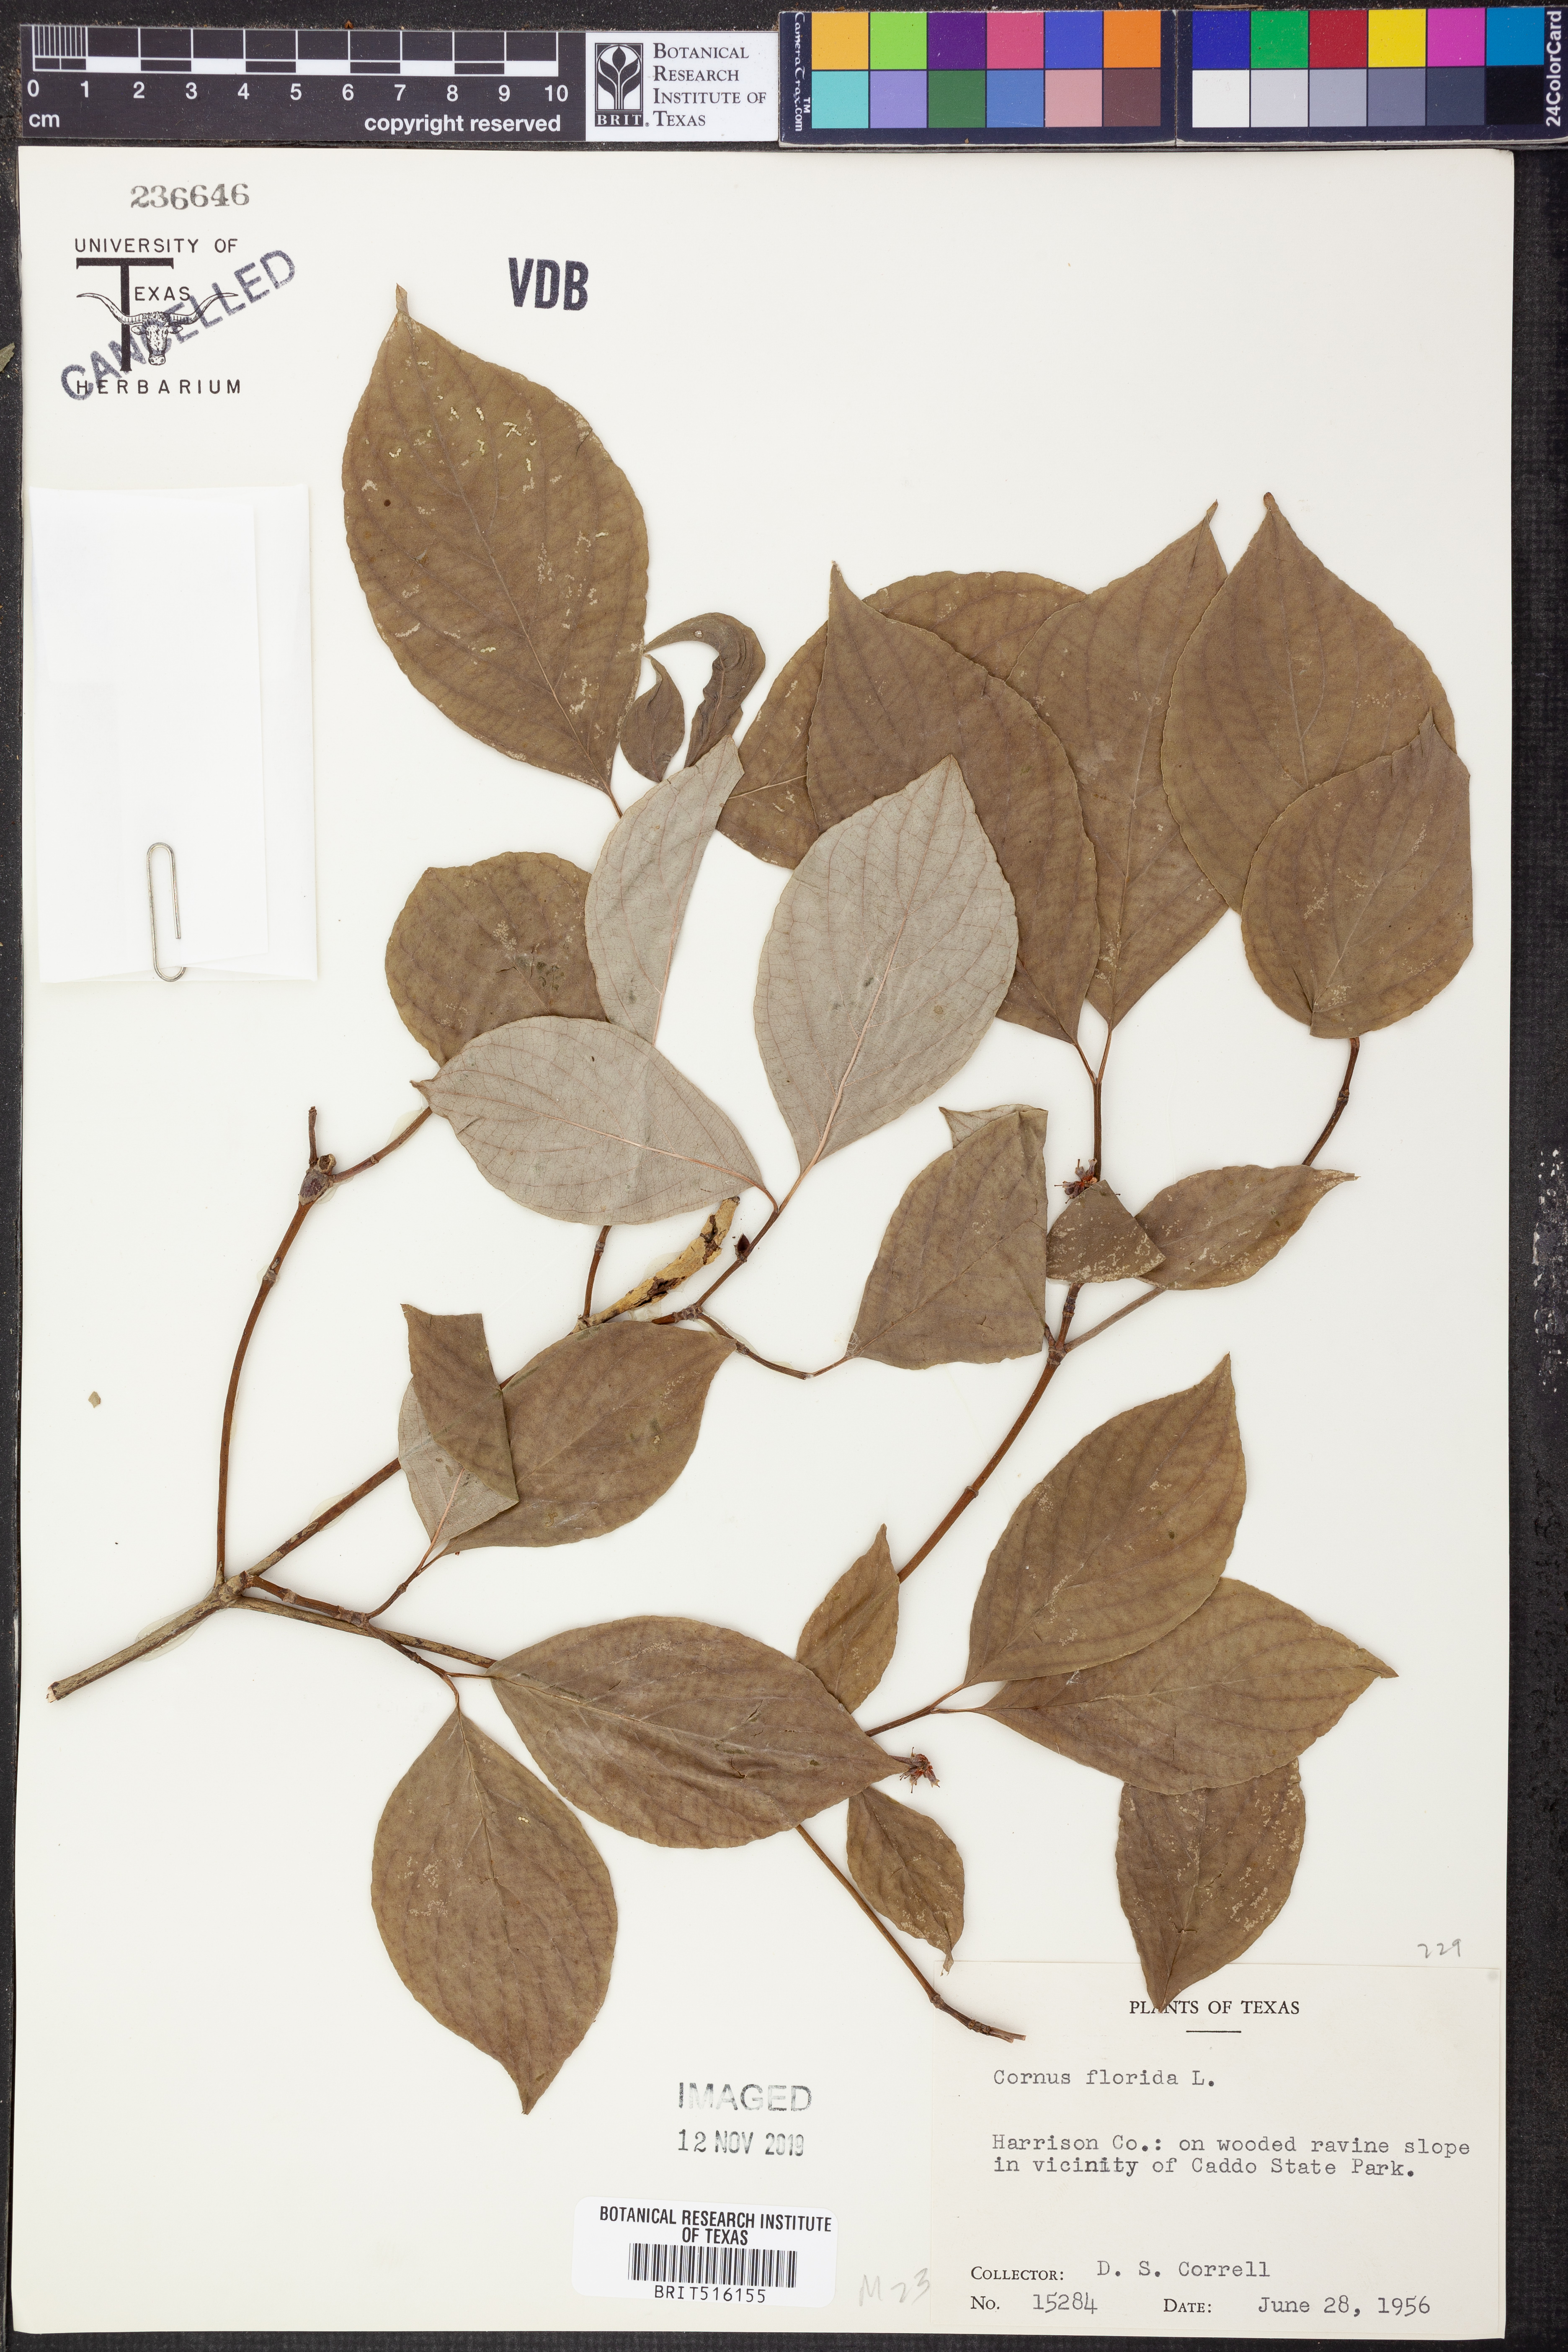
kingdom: Plantae
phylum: Tracheophyta
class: Magnoliopsida
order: Cornales
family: Cornaceae
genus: Cornus
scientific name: Cornus florida
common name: Flowering dogwood
